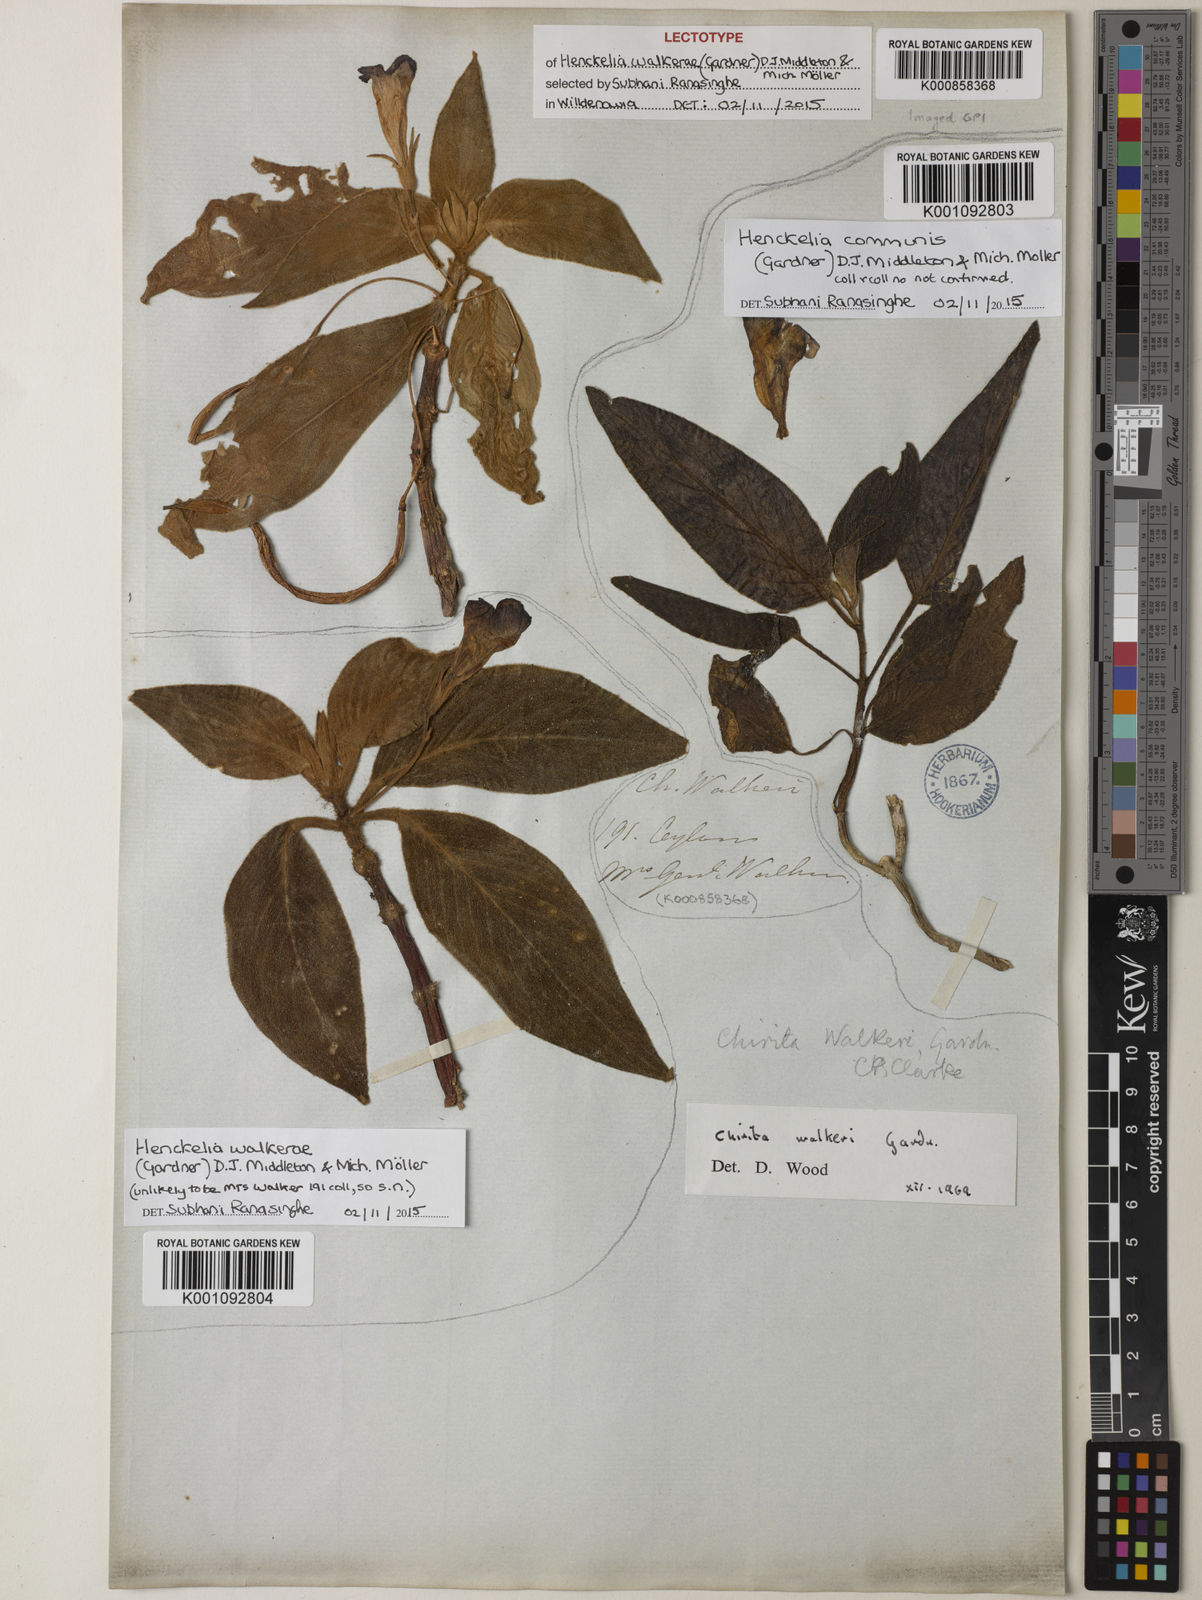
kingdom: Plantae
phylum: Tracheophyta
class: Magnoliopsida
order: Lamiales
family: Gesneriaceae
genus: Henckelia
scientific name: Henckelia
